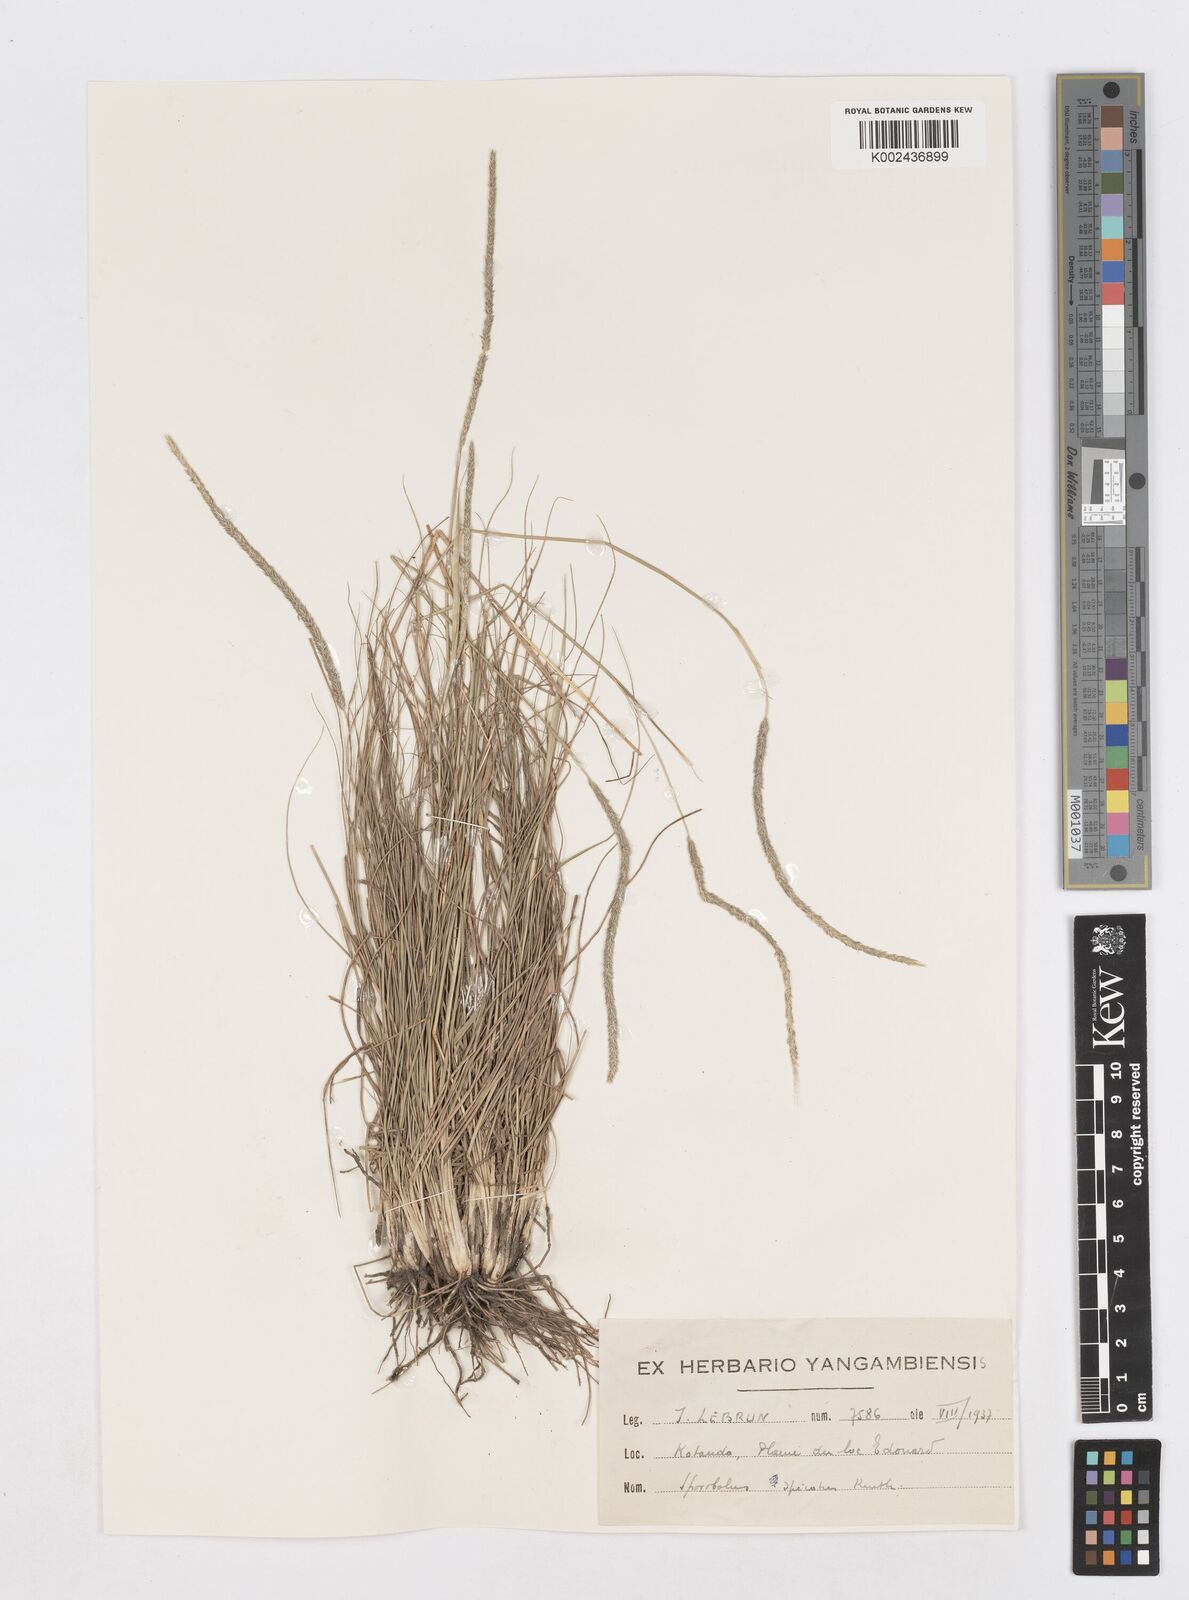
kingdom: Plantae
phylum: Tracheophyta
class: Liliopsida
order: Poales
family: Poaceae
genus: Sporobolus
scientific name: Sporobolus spicatus
